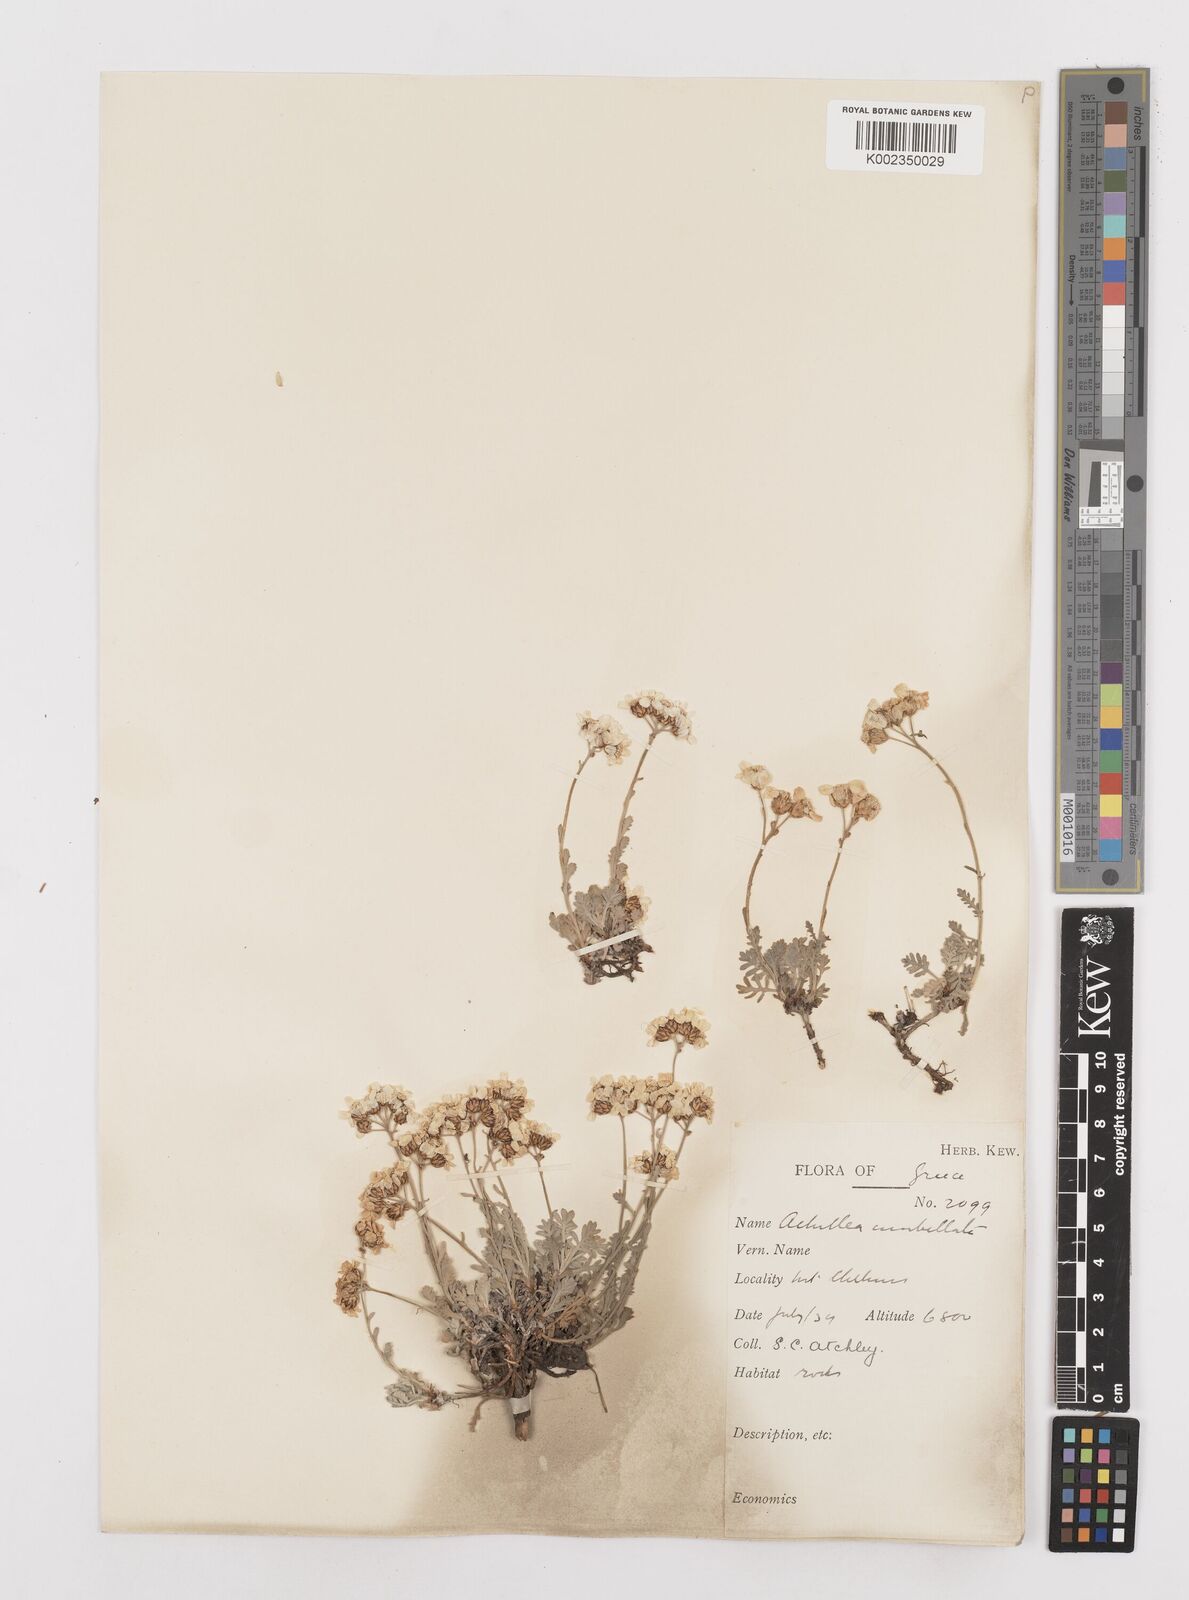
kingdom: Plantae
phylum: Tracheophyta
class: Magnoliopsida
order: Asterales
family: Asteraceae
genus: Achillea
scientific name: Achillea umbellata
